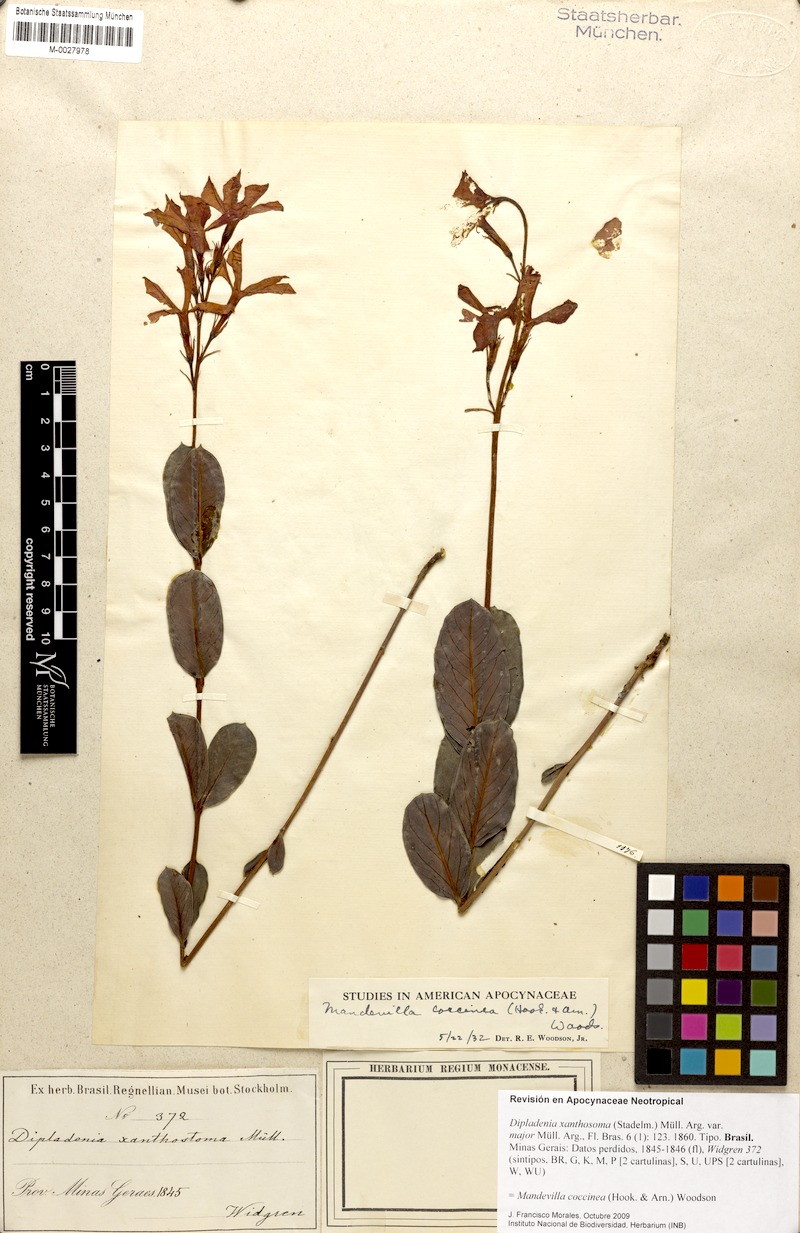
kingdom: Plantae
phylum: Tracheophyta
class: Magnoliopsida
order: Gentianales
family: Apocynaceae
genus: Mandevilla
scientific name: Mandevilla coccinea
